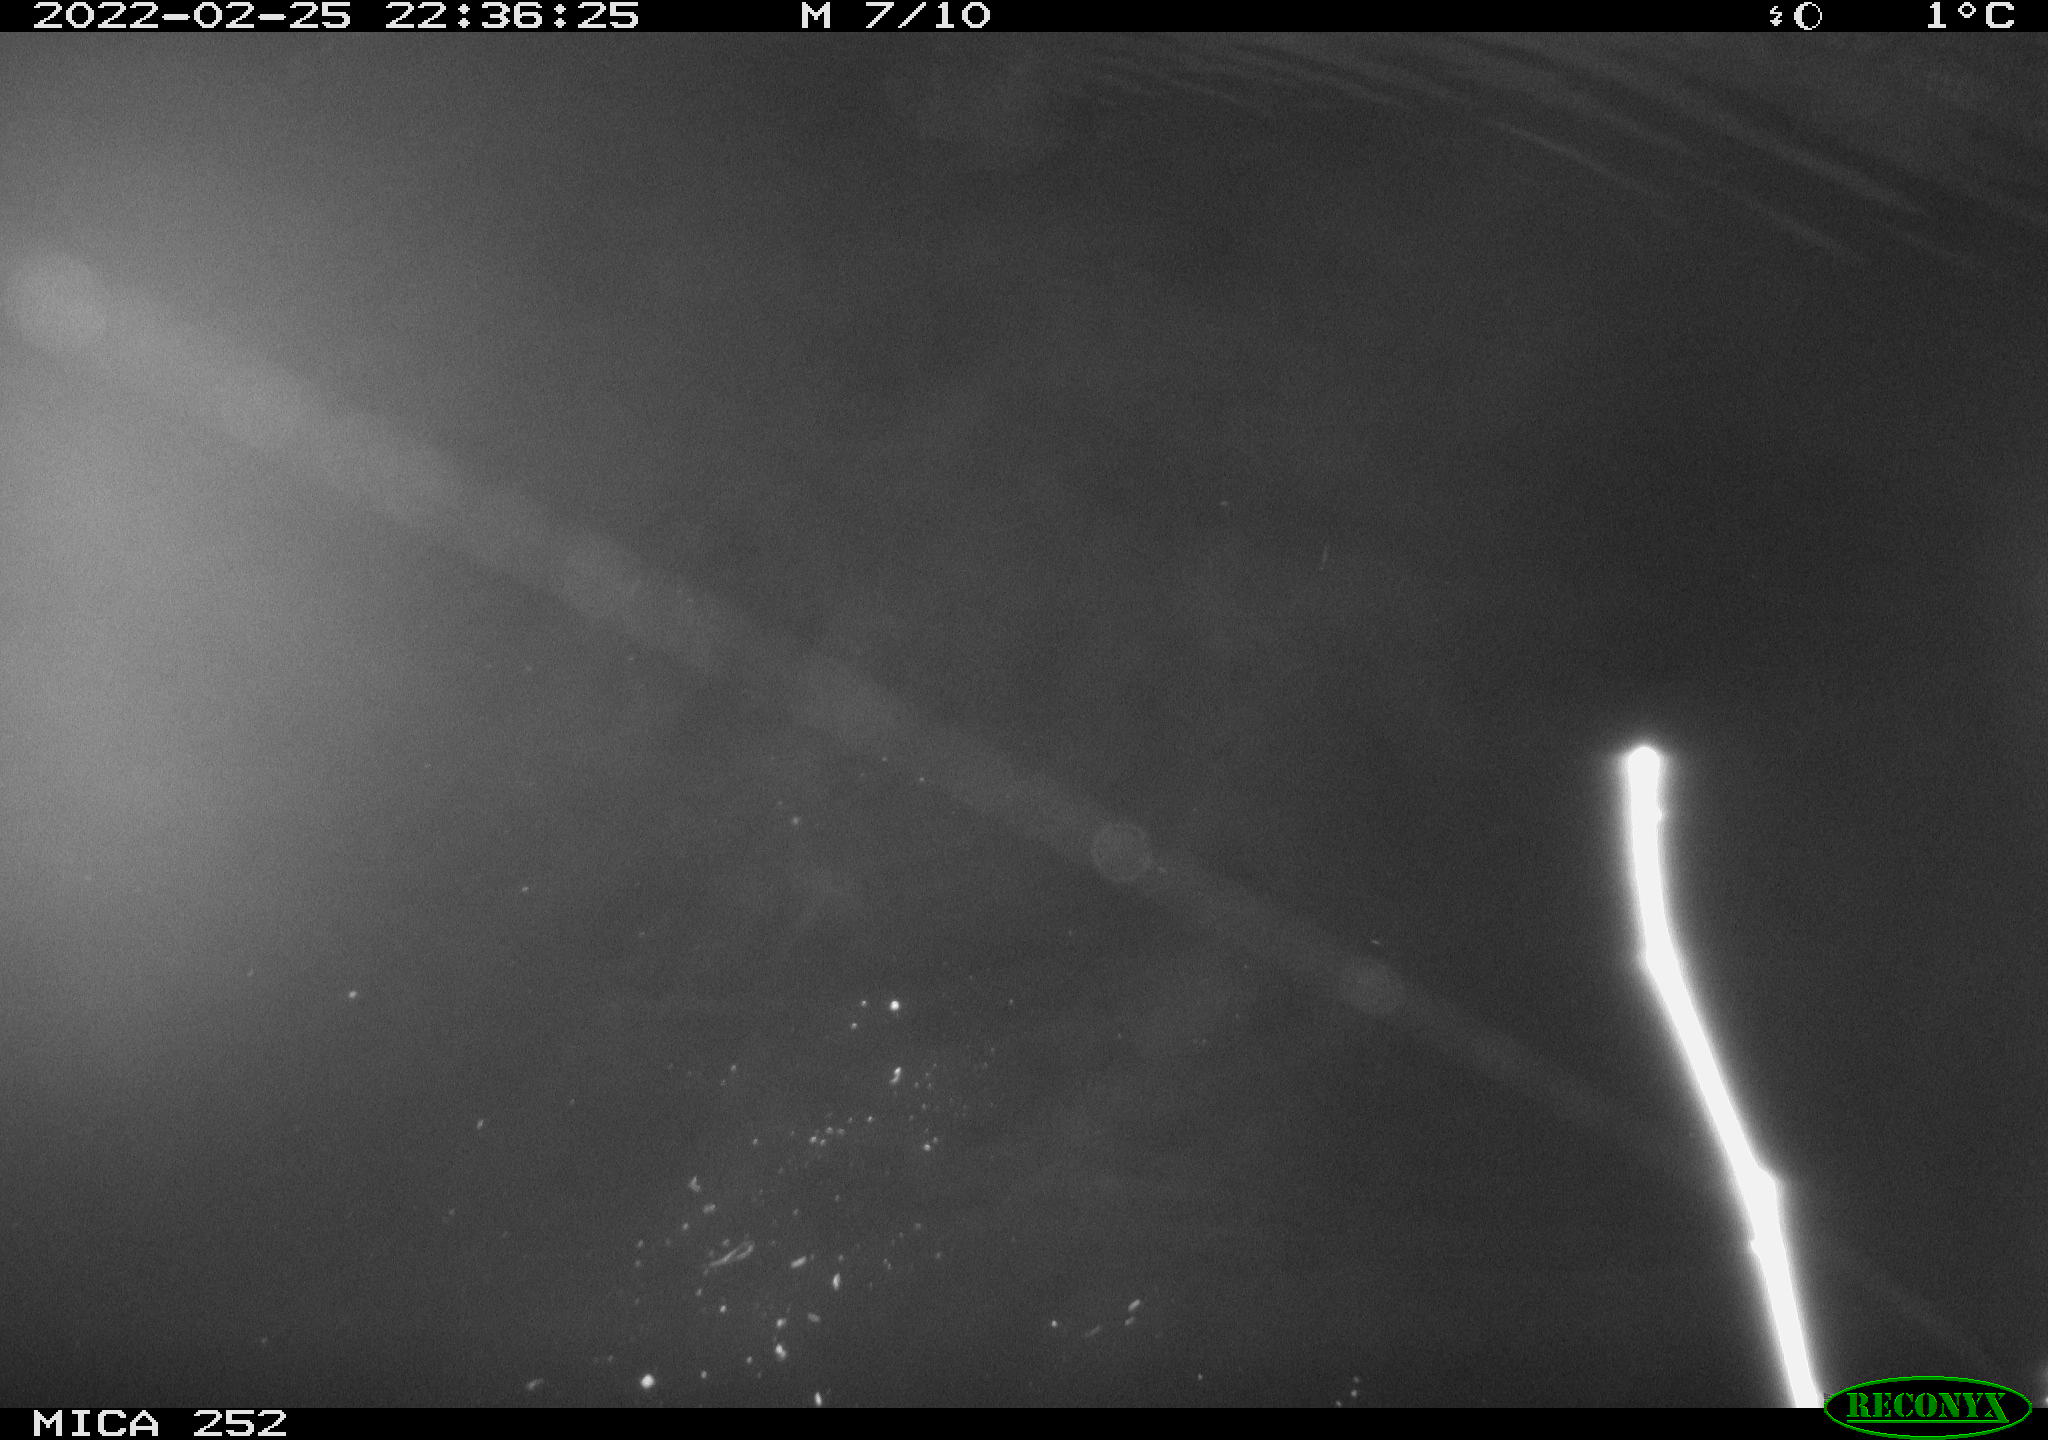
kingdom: Animalia
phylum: Chordata
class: Mammalia
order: Rodentia
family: Castoridae
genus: Castor
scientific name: Castor fiber
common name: Eurasian beaver
